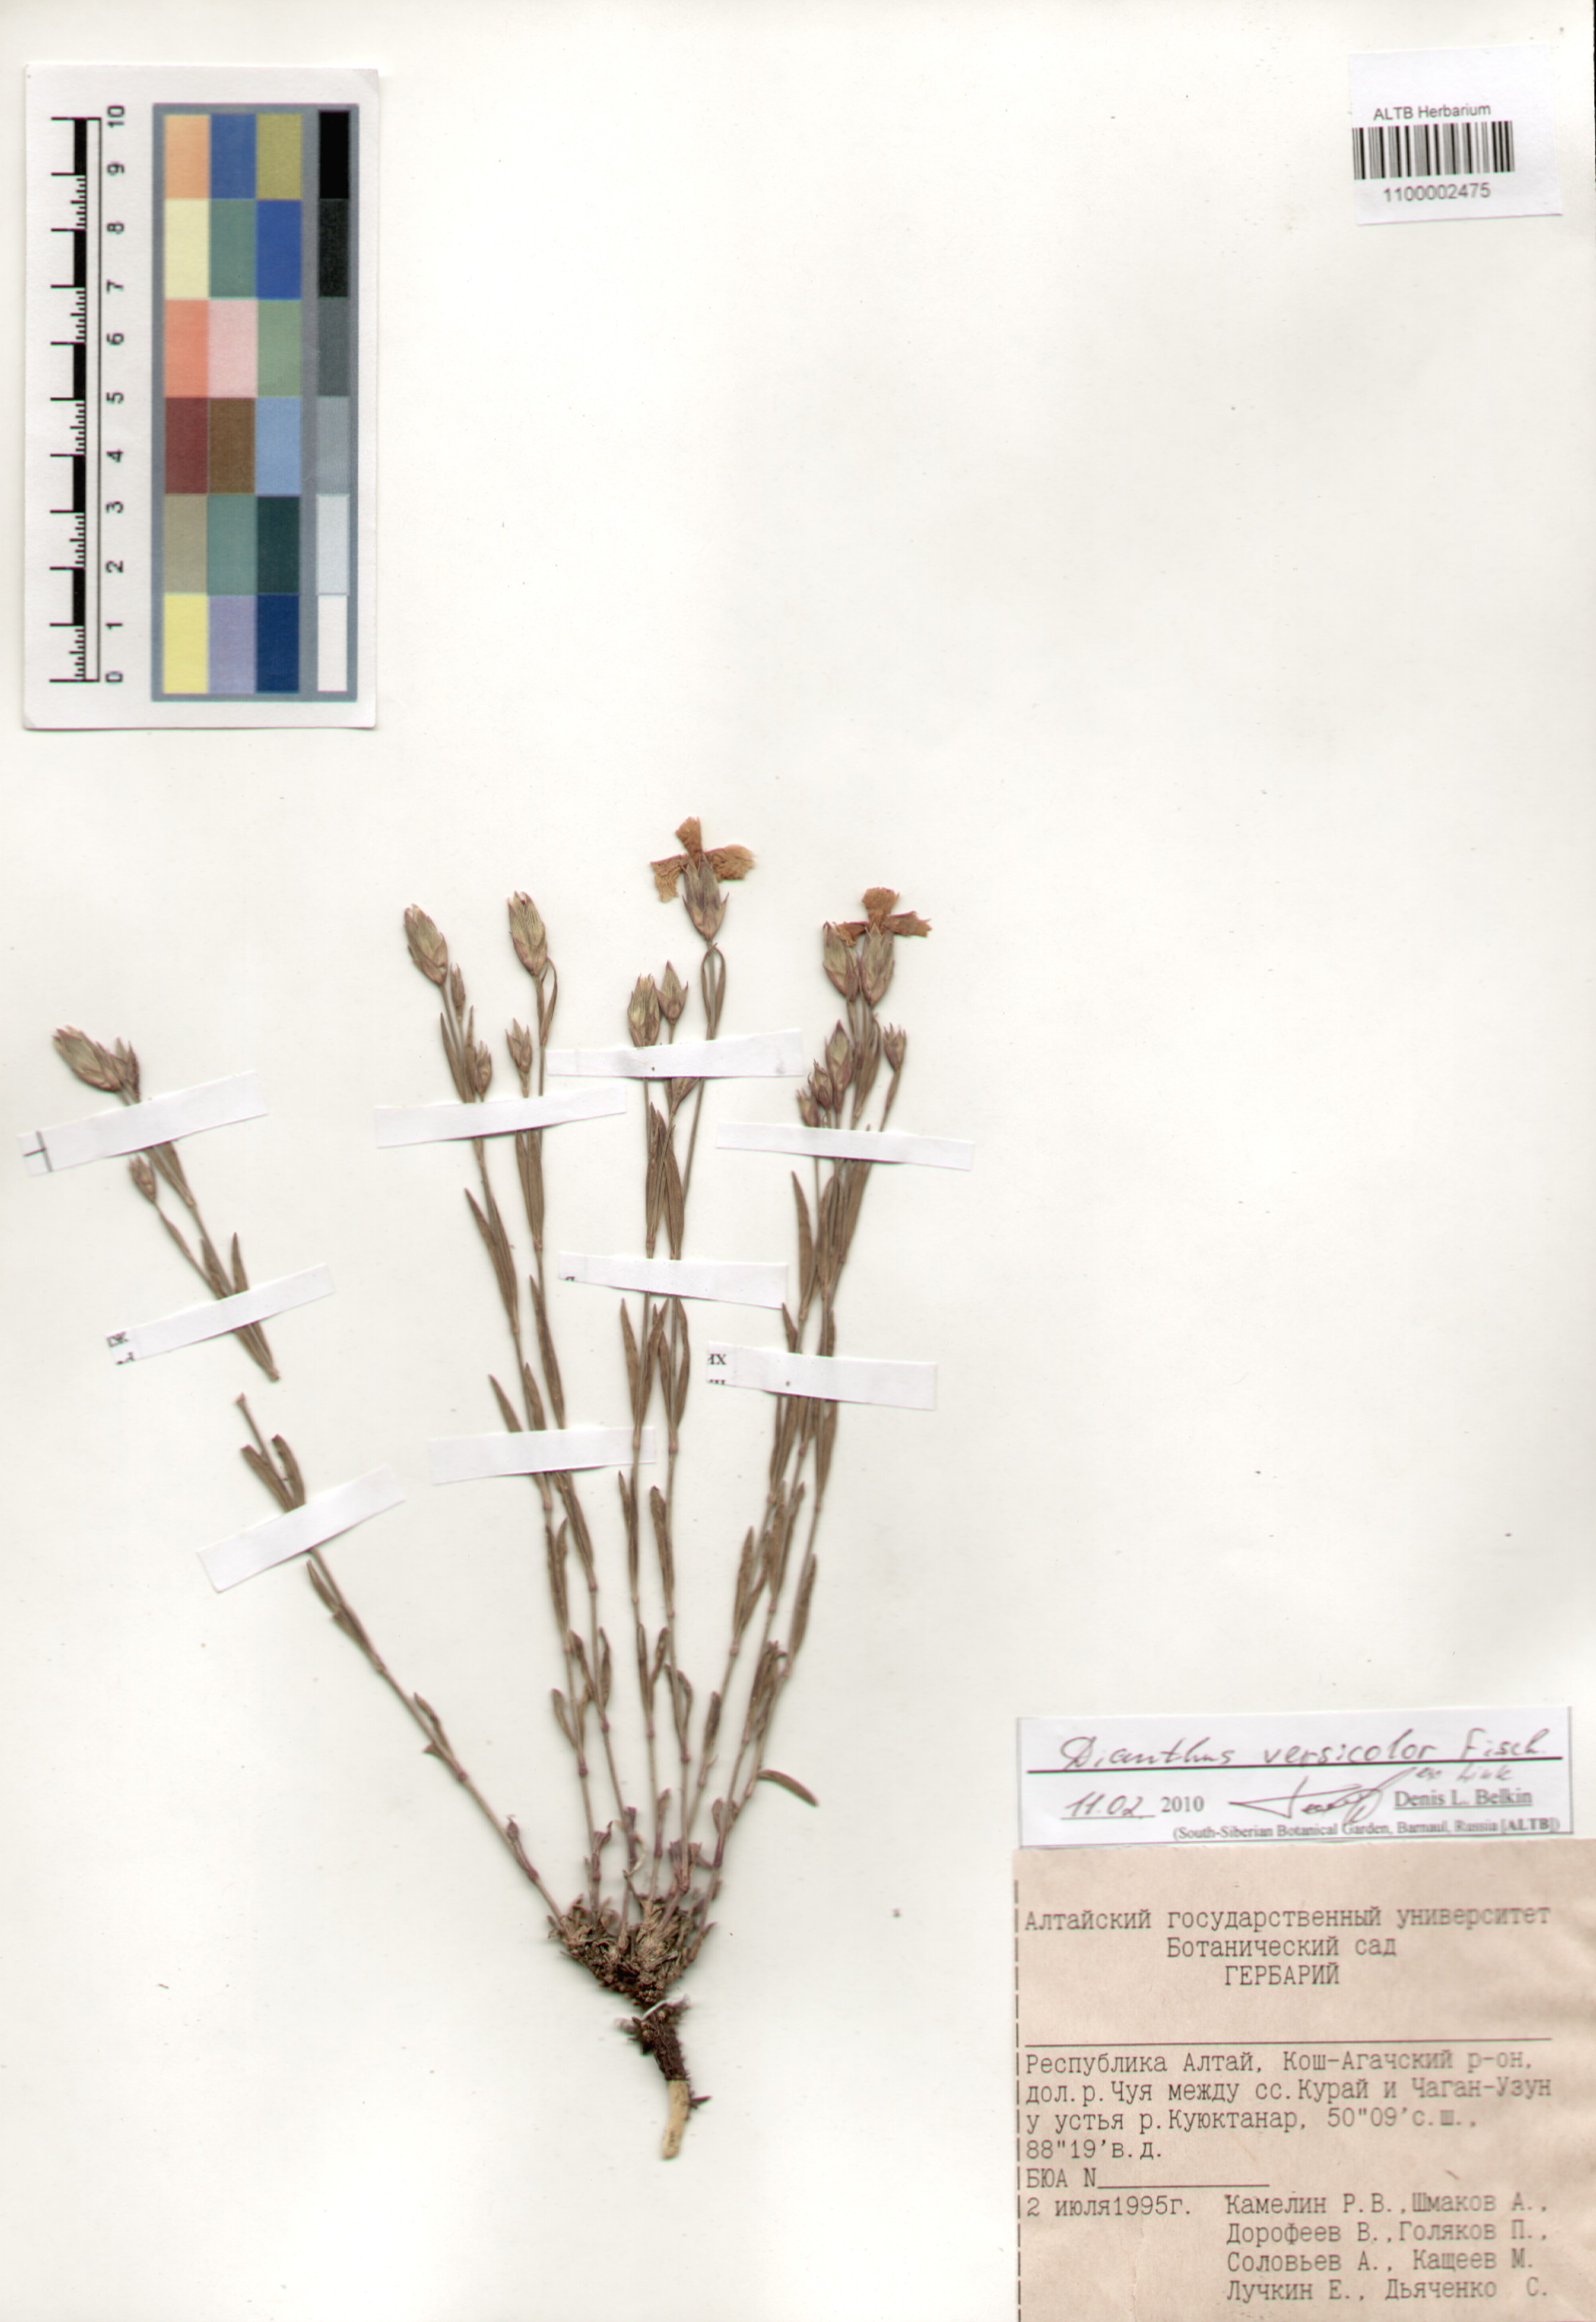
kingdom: Plantae
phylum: Tracheophyta
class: Magnoliopsida
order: Caryophyllales
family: Caryophyllaceae
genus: Dianthus
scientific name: Dianthus chinensis
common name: Rainbow pink
